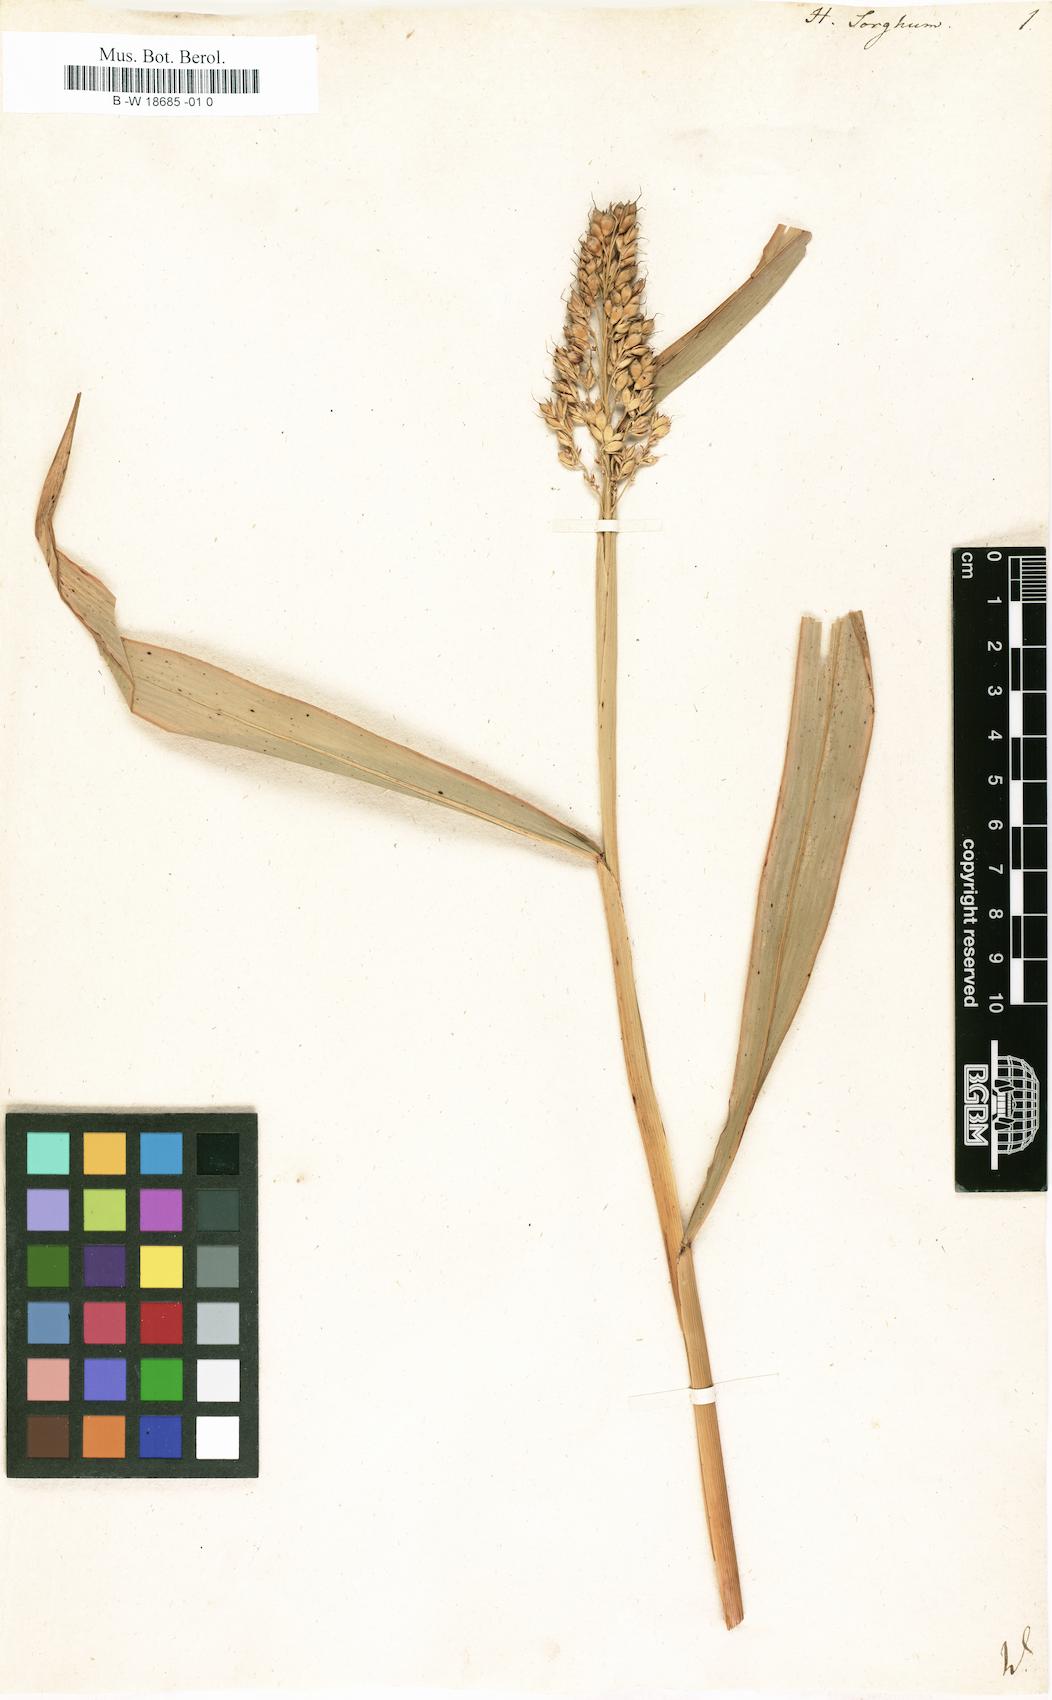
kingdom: Plantae
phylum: Tracheophyta
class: Liliopsida
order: Poales
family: Poaceae
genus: Sorghum
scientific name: Sorghum bicolor
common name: Sorghum
